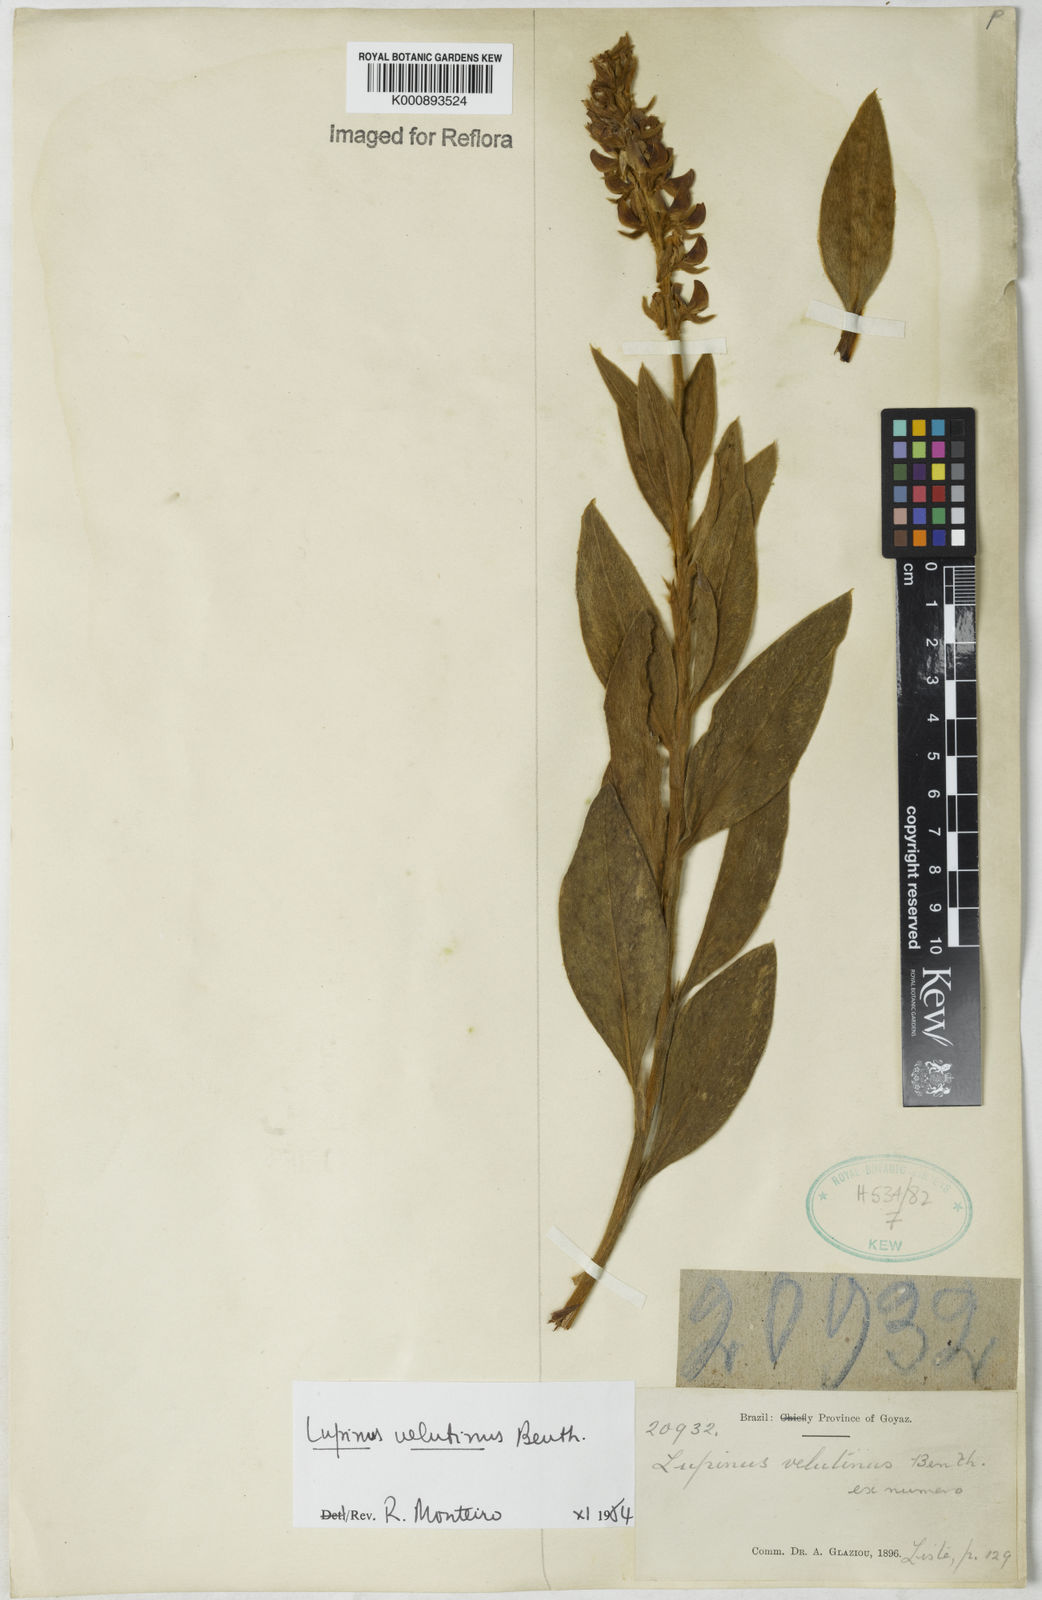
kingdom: Plantae
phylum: Tracheophyta
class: Magnoliopsida
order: Fabales
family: Fabaceae
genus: Lupinus
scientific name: Lupinus velutinus
